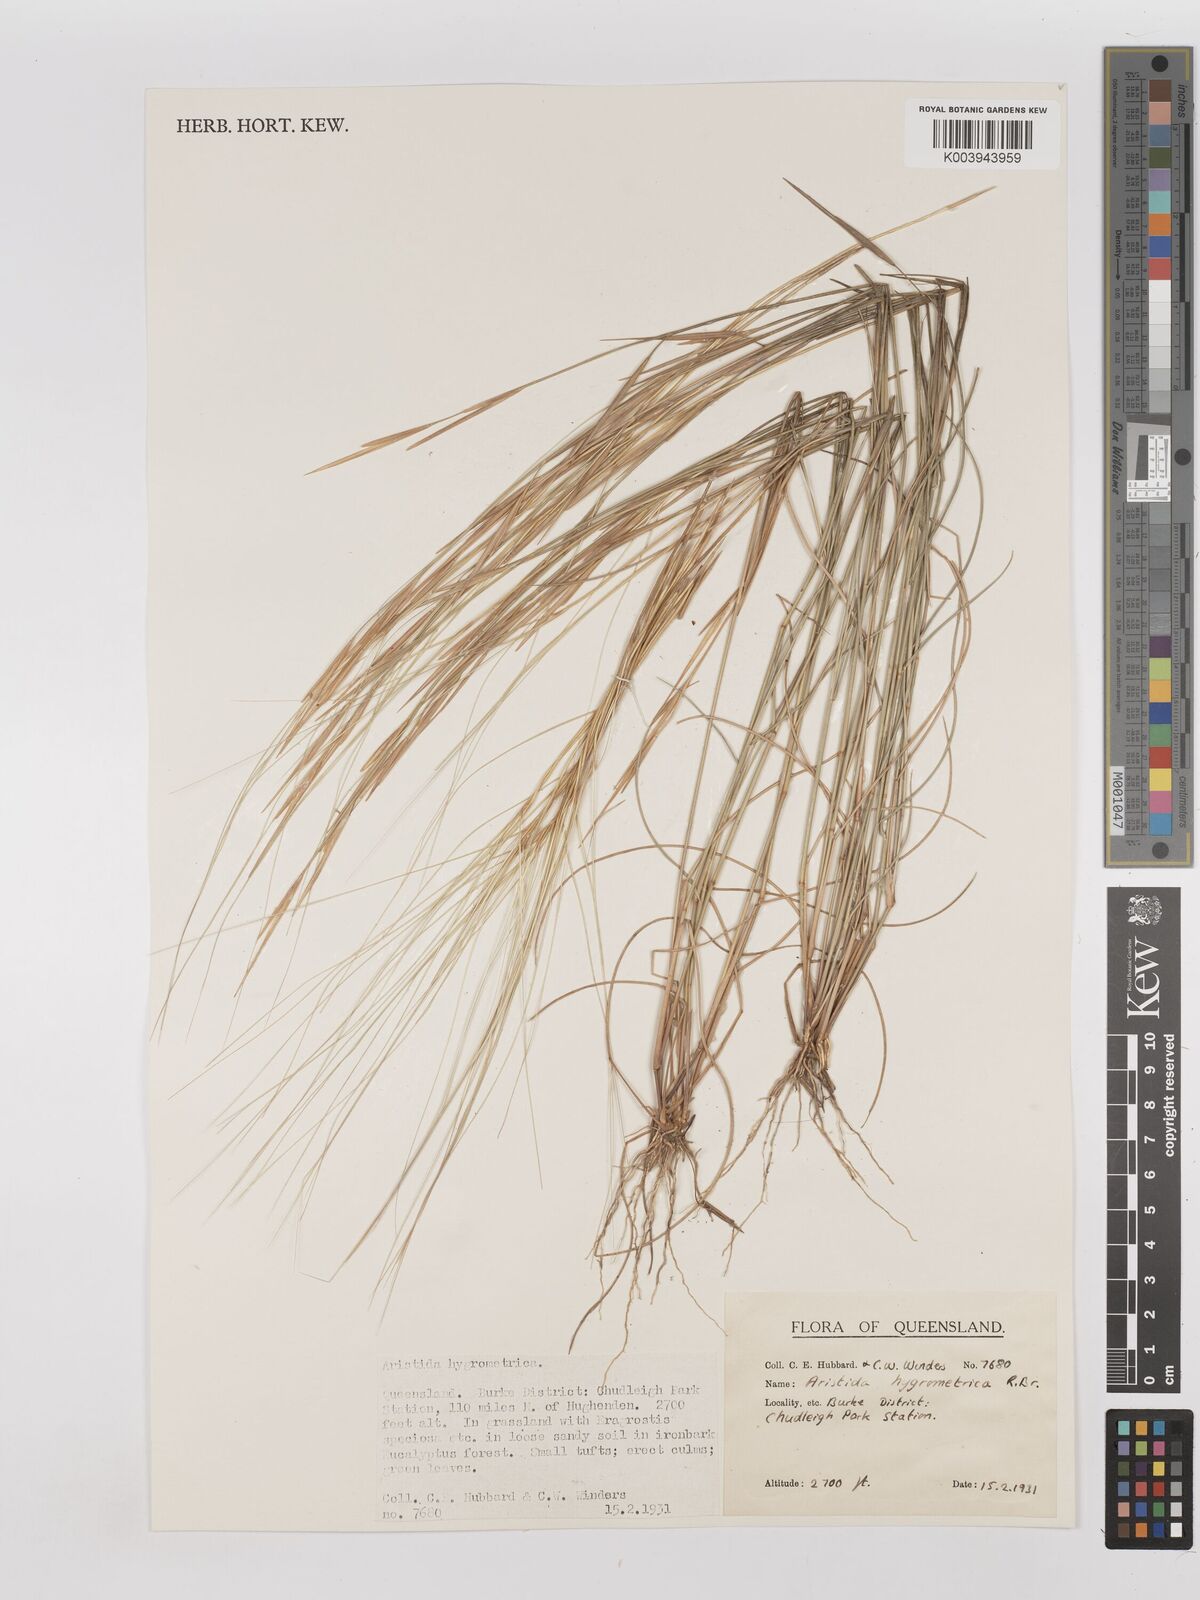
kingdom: Plantae
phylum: Tracheophyta
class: Liliopsida
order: Poales
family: Poaceae
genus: Aristida
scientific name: Aristida hygrometrica
